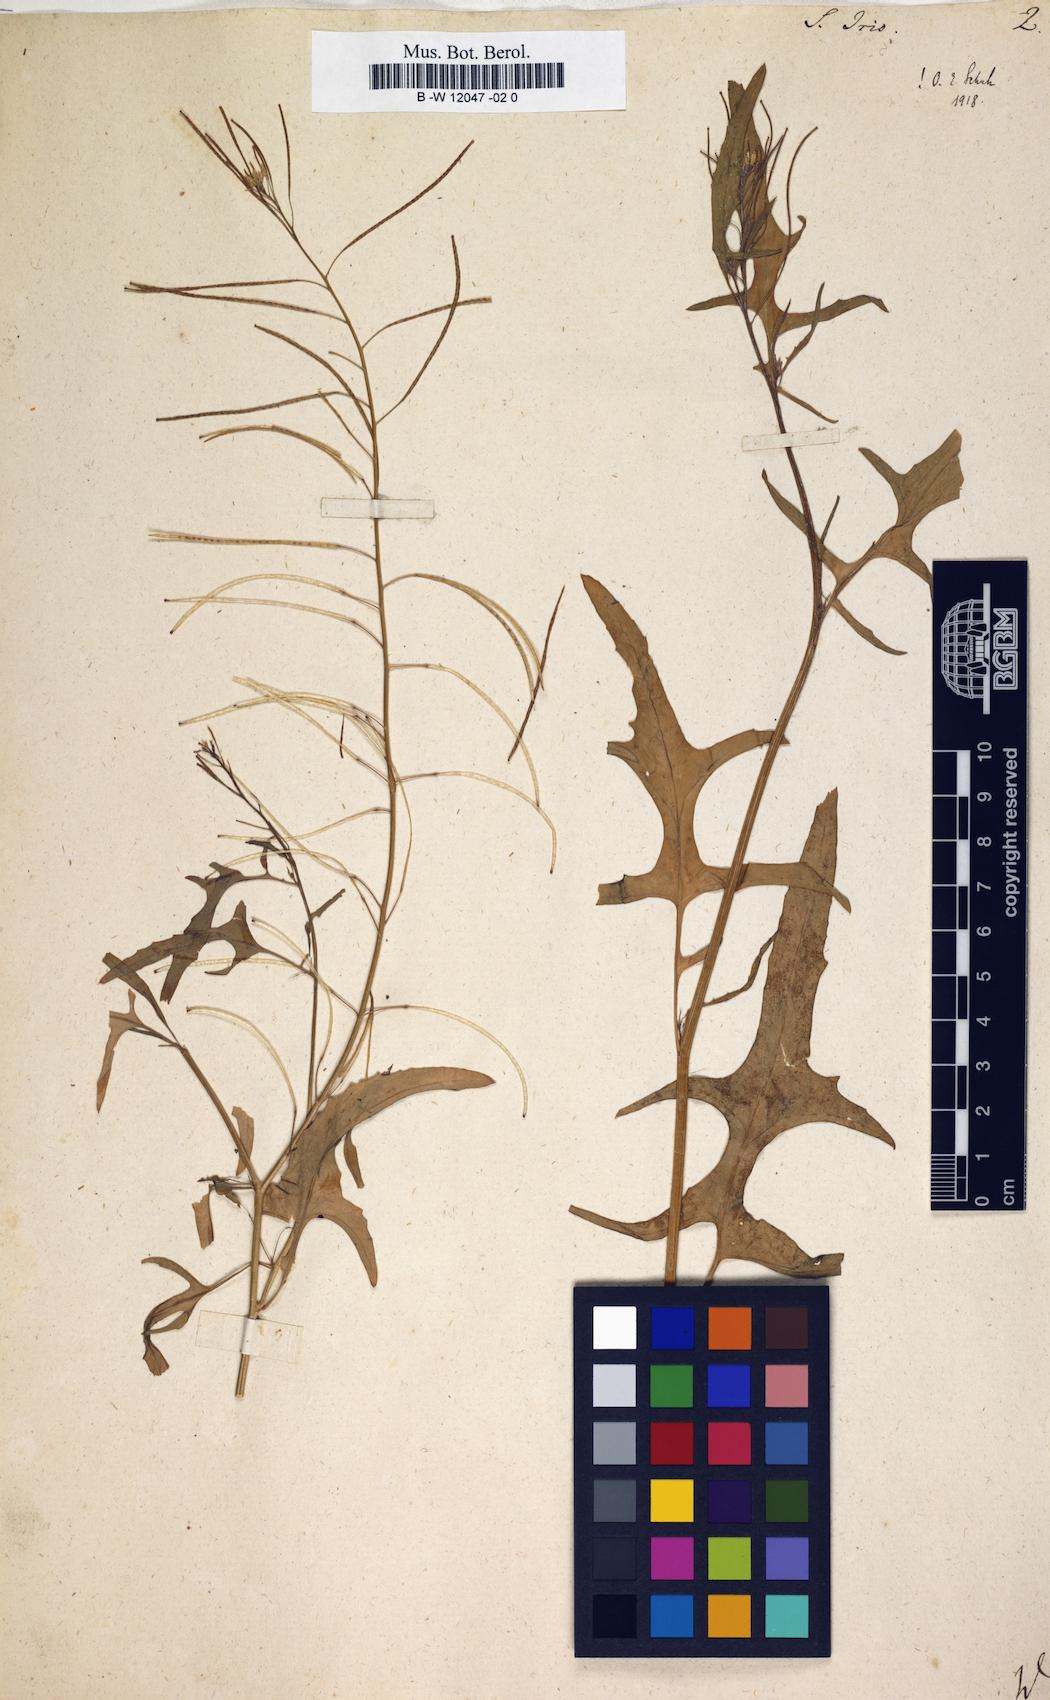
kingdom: Plantae
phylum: Tracheophyta
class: Magnoliopsida
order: Brassicales
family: Brassicaceae
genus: Sisymbrium
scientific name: Sisymbrium irio
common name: London rocket
